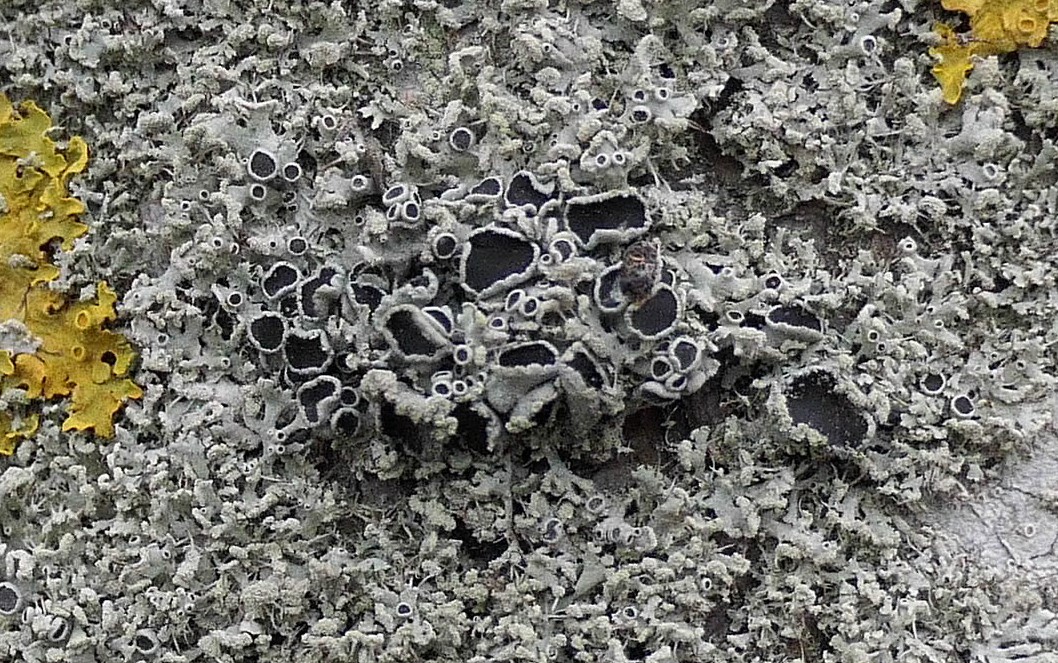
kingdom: Fungi
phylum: Ascomycota
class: Lecanoromycetes
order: Caliciales
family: Physciaceae
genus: Physcia
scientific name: Physcia tenella
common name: spæd rosetlav
